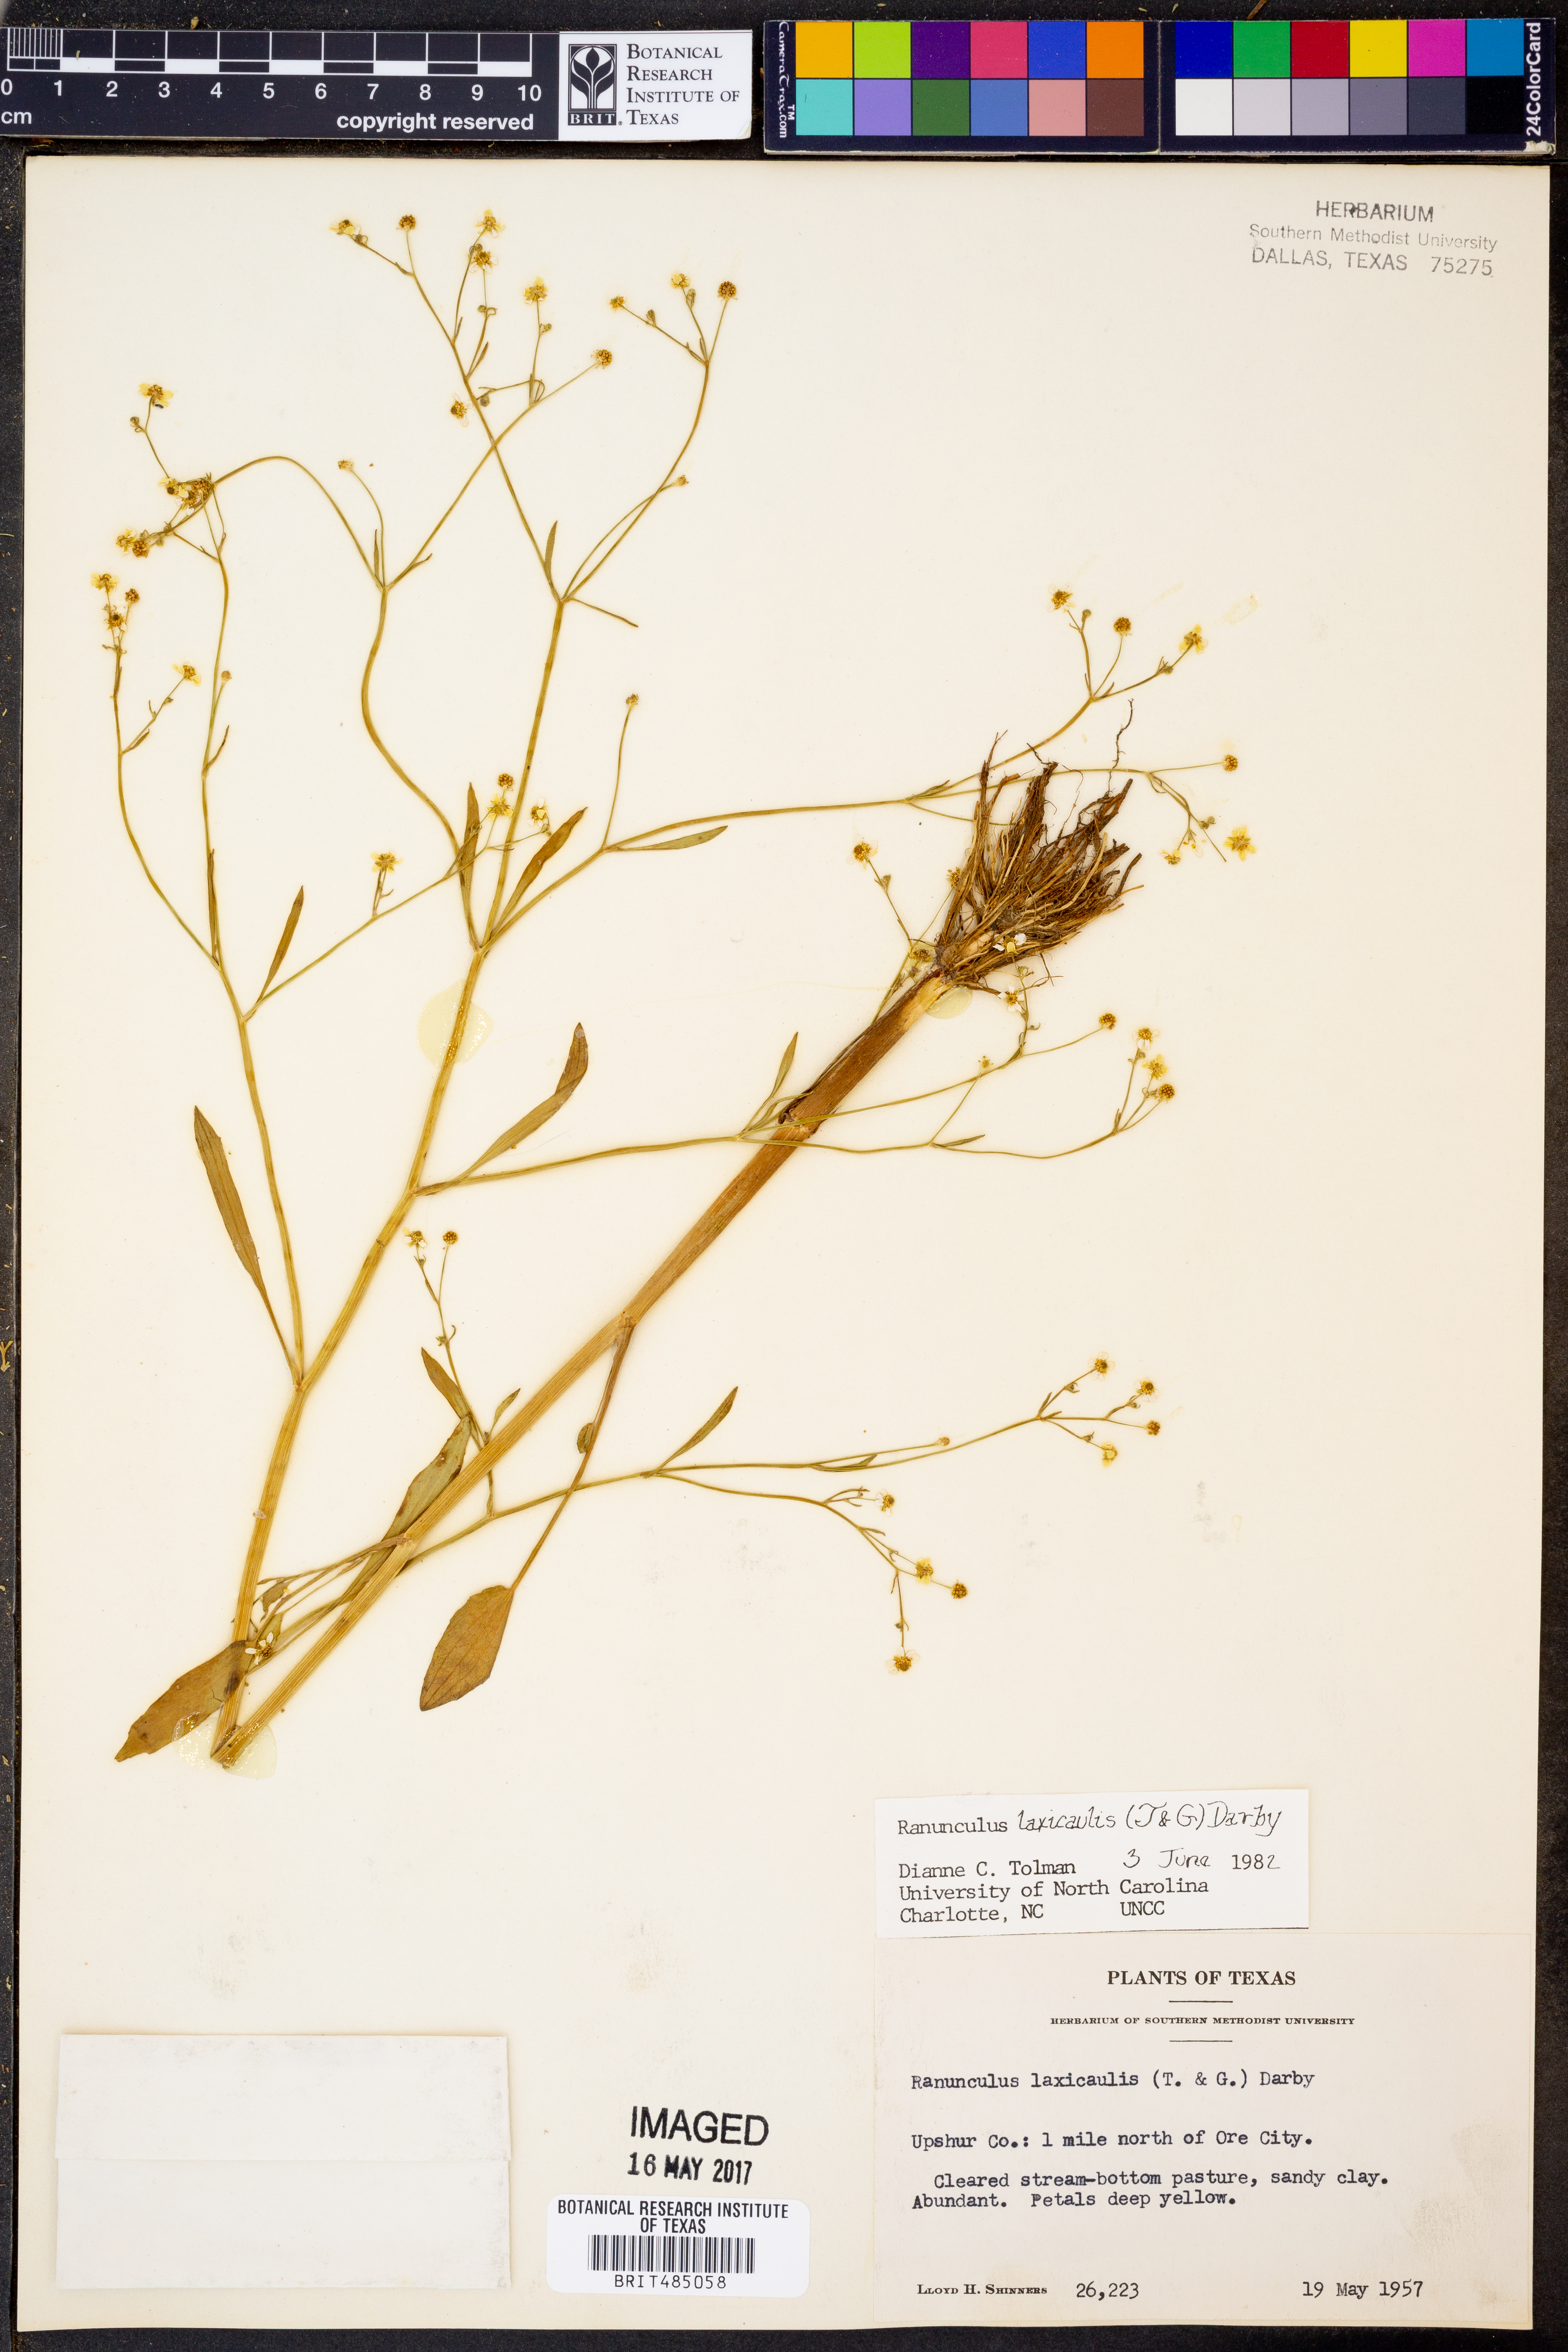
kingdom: Plantae
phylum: Tracheophyta
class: Magnoliopsida
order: Ranunculales
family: Ranunculaceae
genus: Ranunculus
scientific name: Ranunculus laxicaulis
